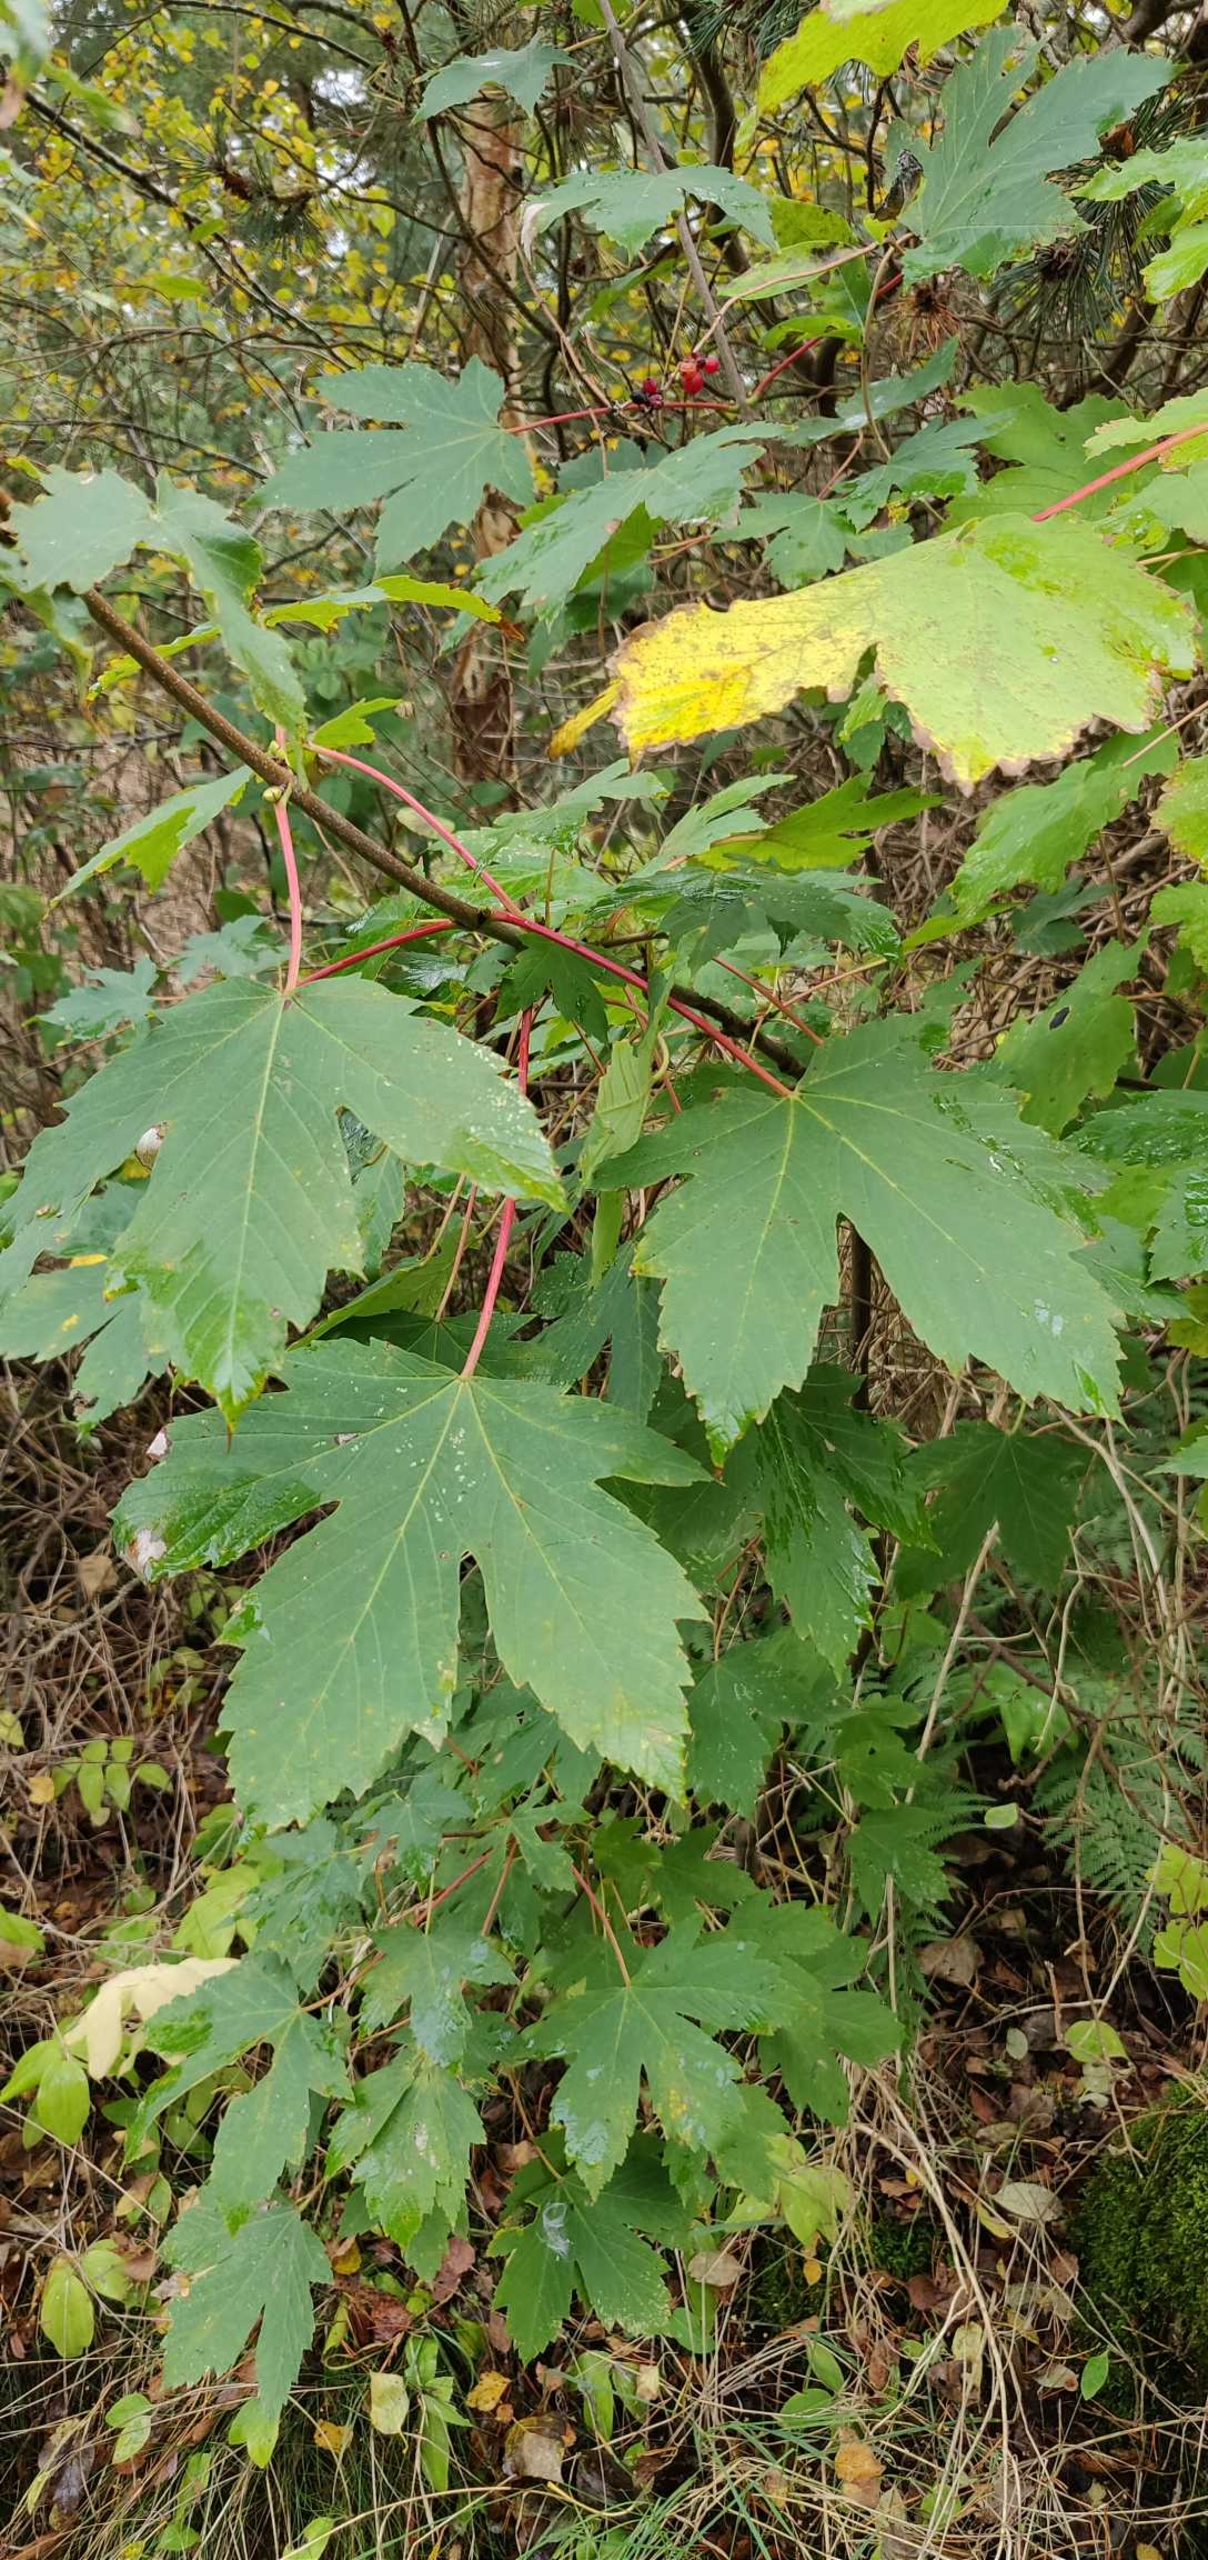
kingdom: Plantae
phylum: Tracheophyta
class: Magnoliopsida
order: Sapindales
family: Sapindaceae
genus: Acer
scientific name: Acer pseudoplatanus
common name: Ahorn
